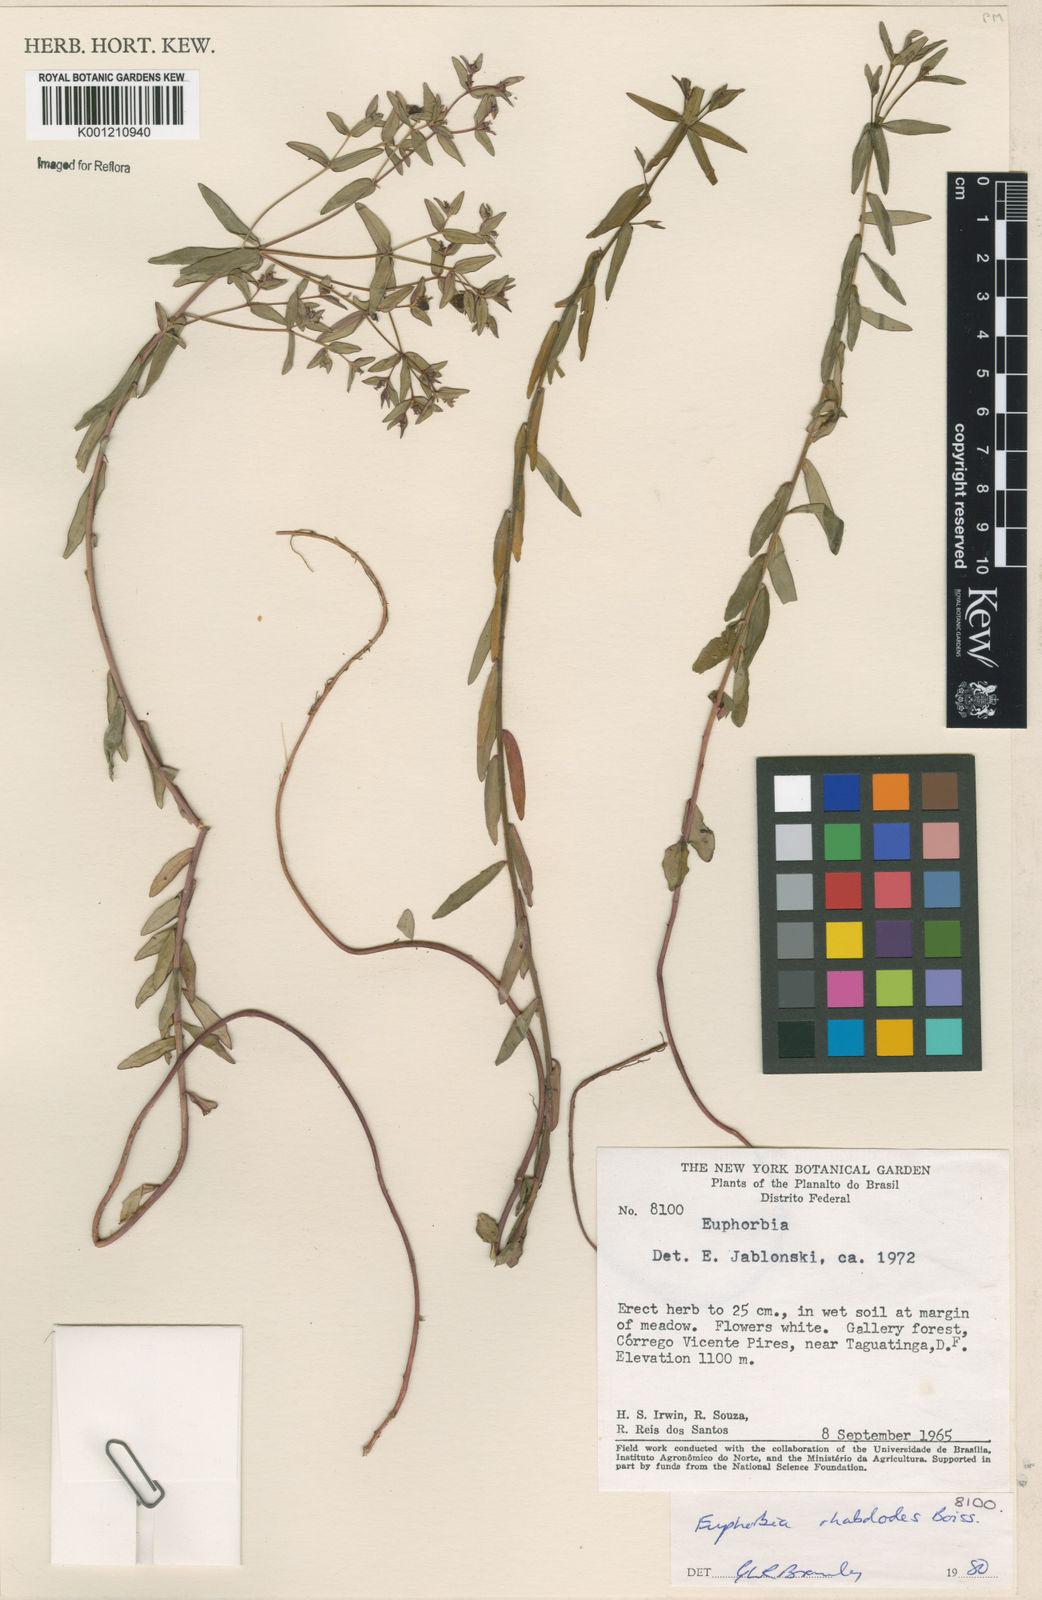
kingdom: Plantae
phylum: Tracheophyta
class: Magnoliopsida
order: Malpighiales
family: Euphorbiaceae
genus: Euphorbia
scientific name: Euphorbia rhabdodes
